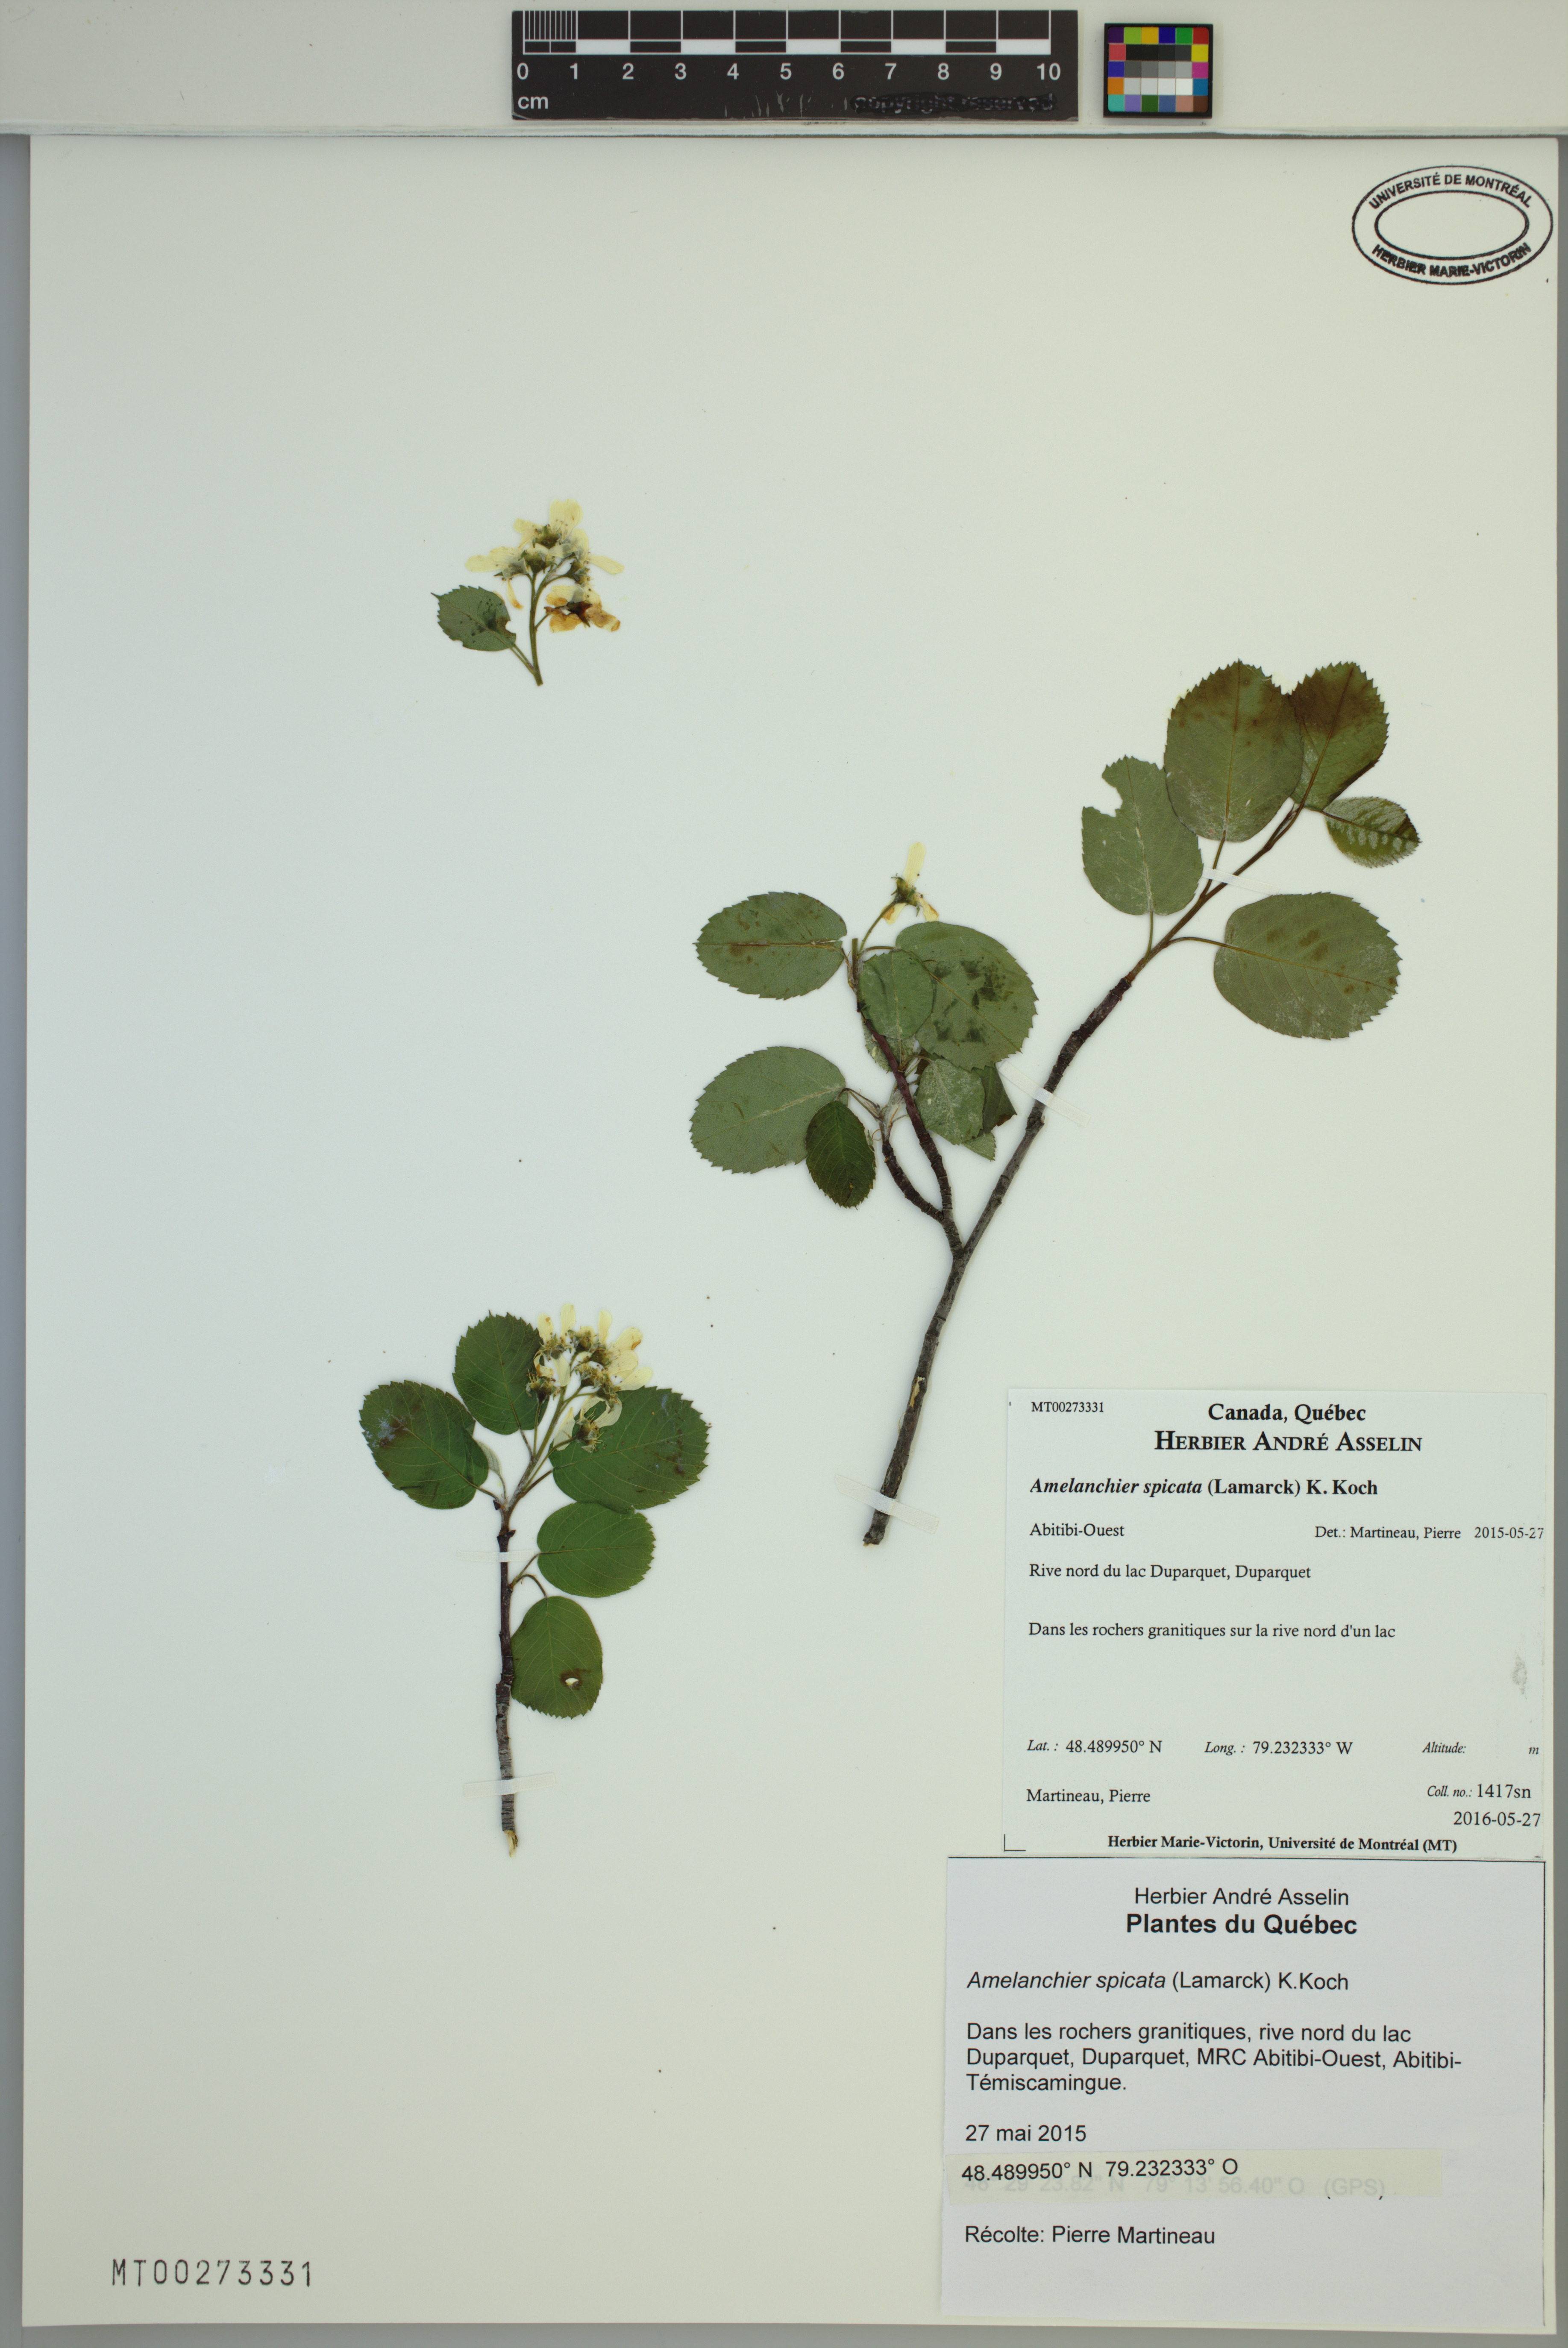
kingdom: Plantae
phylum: Tracheophyta
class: Magnoliopsida
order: Rosales
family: Rosaceae
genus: Amelanchier
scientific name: Amelanchier humilis
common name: Low juneberry
